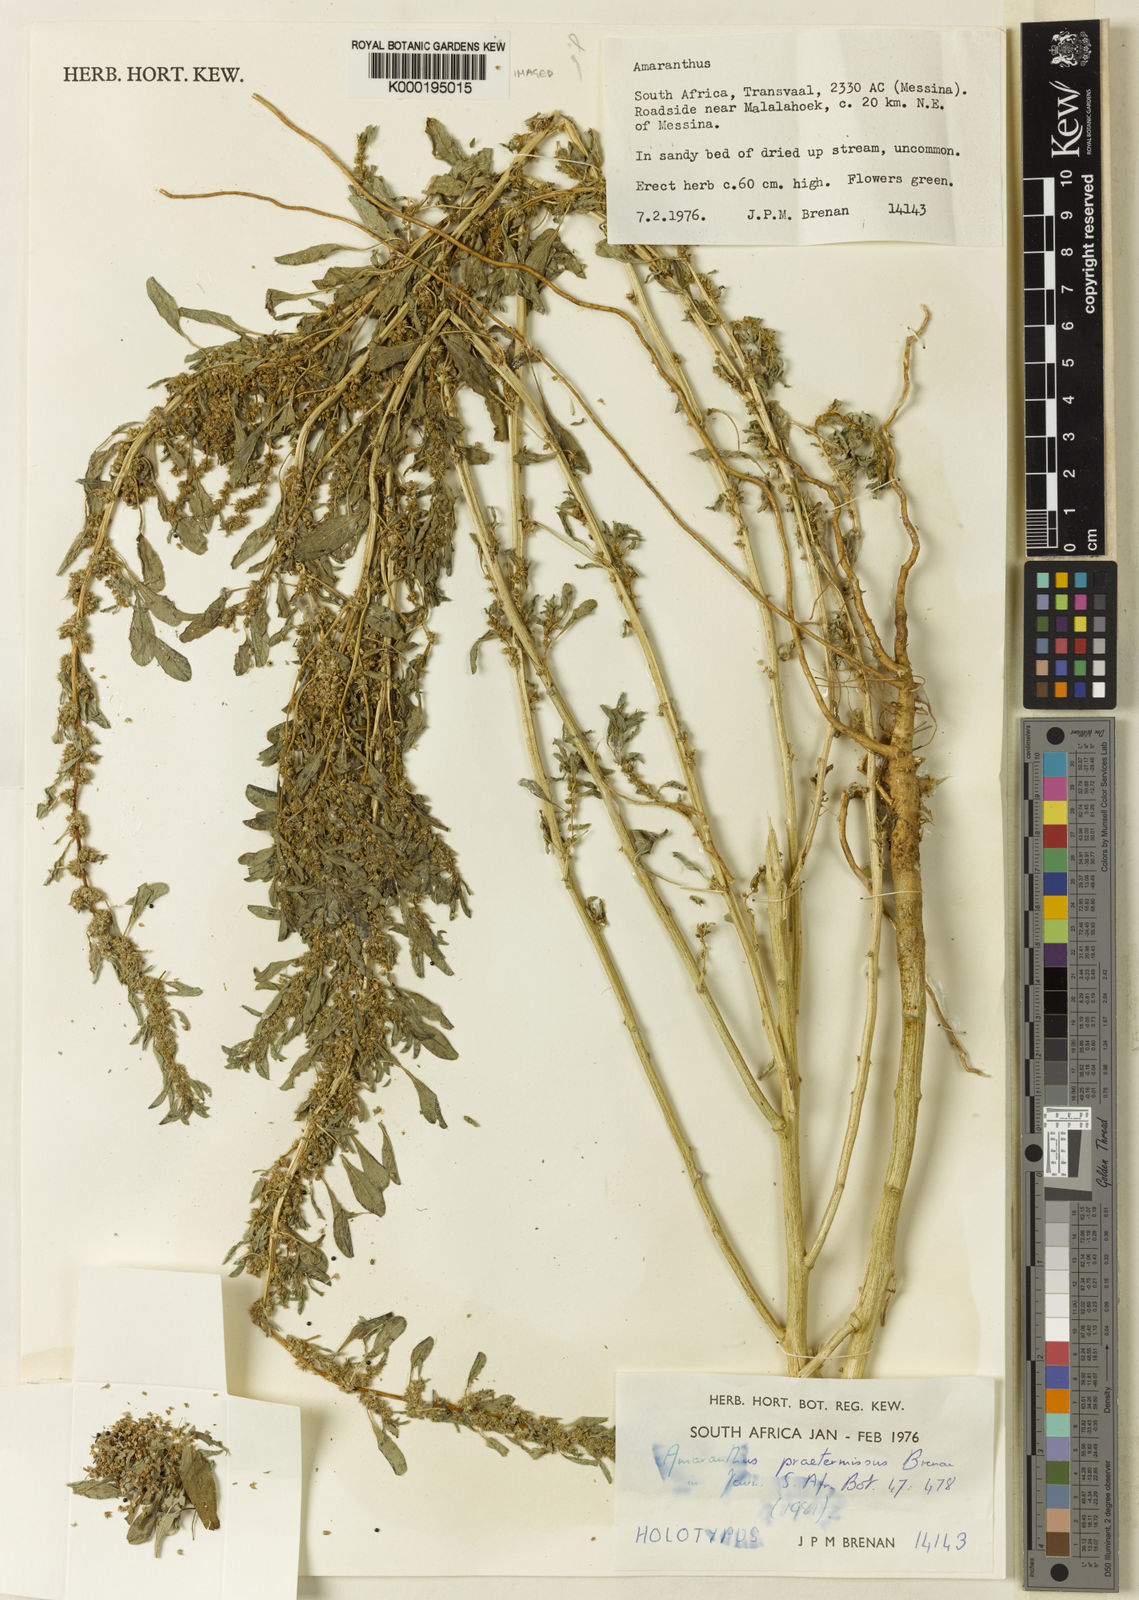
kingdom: Plantae
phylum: Tracheophyta
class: Magnoliopsida
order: Caryophyllales
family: Amaranthaceae
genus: Amaranthus
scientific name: Amaranthus praetermissus
